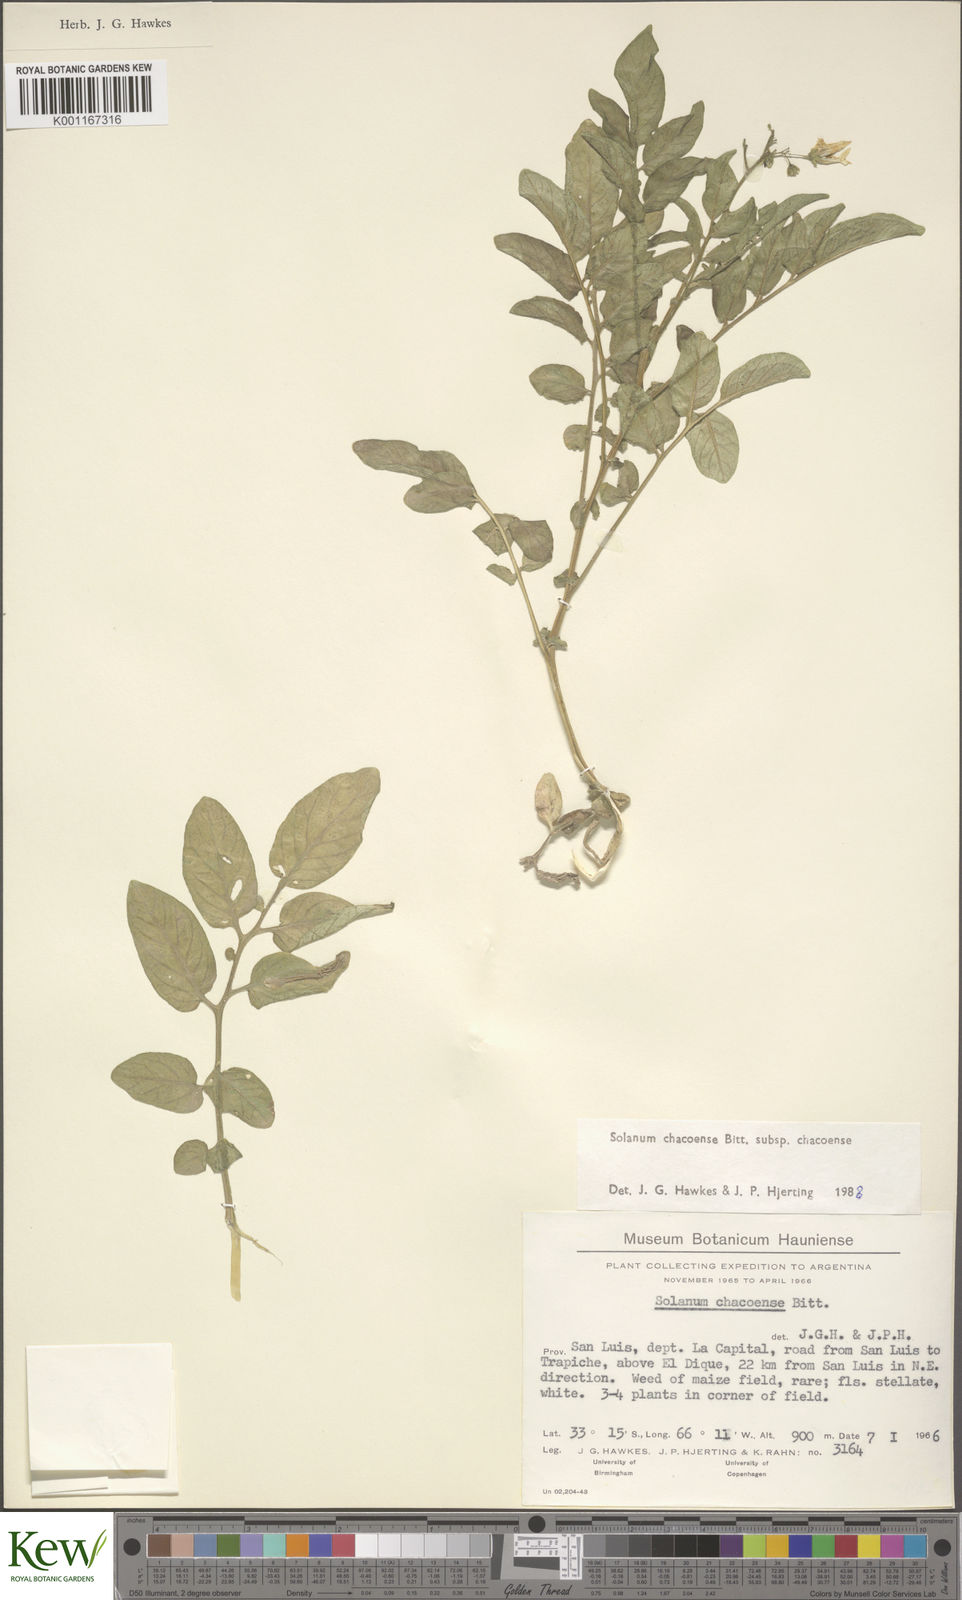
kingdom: Plantae
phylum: Tracheophyta
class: Magnoliopsida
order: Solanales
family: Solanaceae
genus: Solanum
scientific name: Solanum chacoense
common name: Chaco potato
